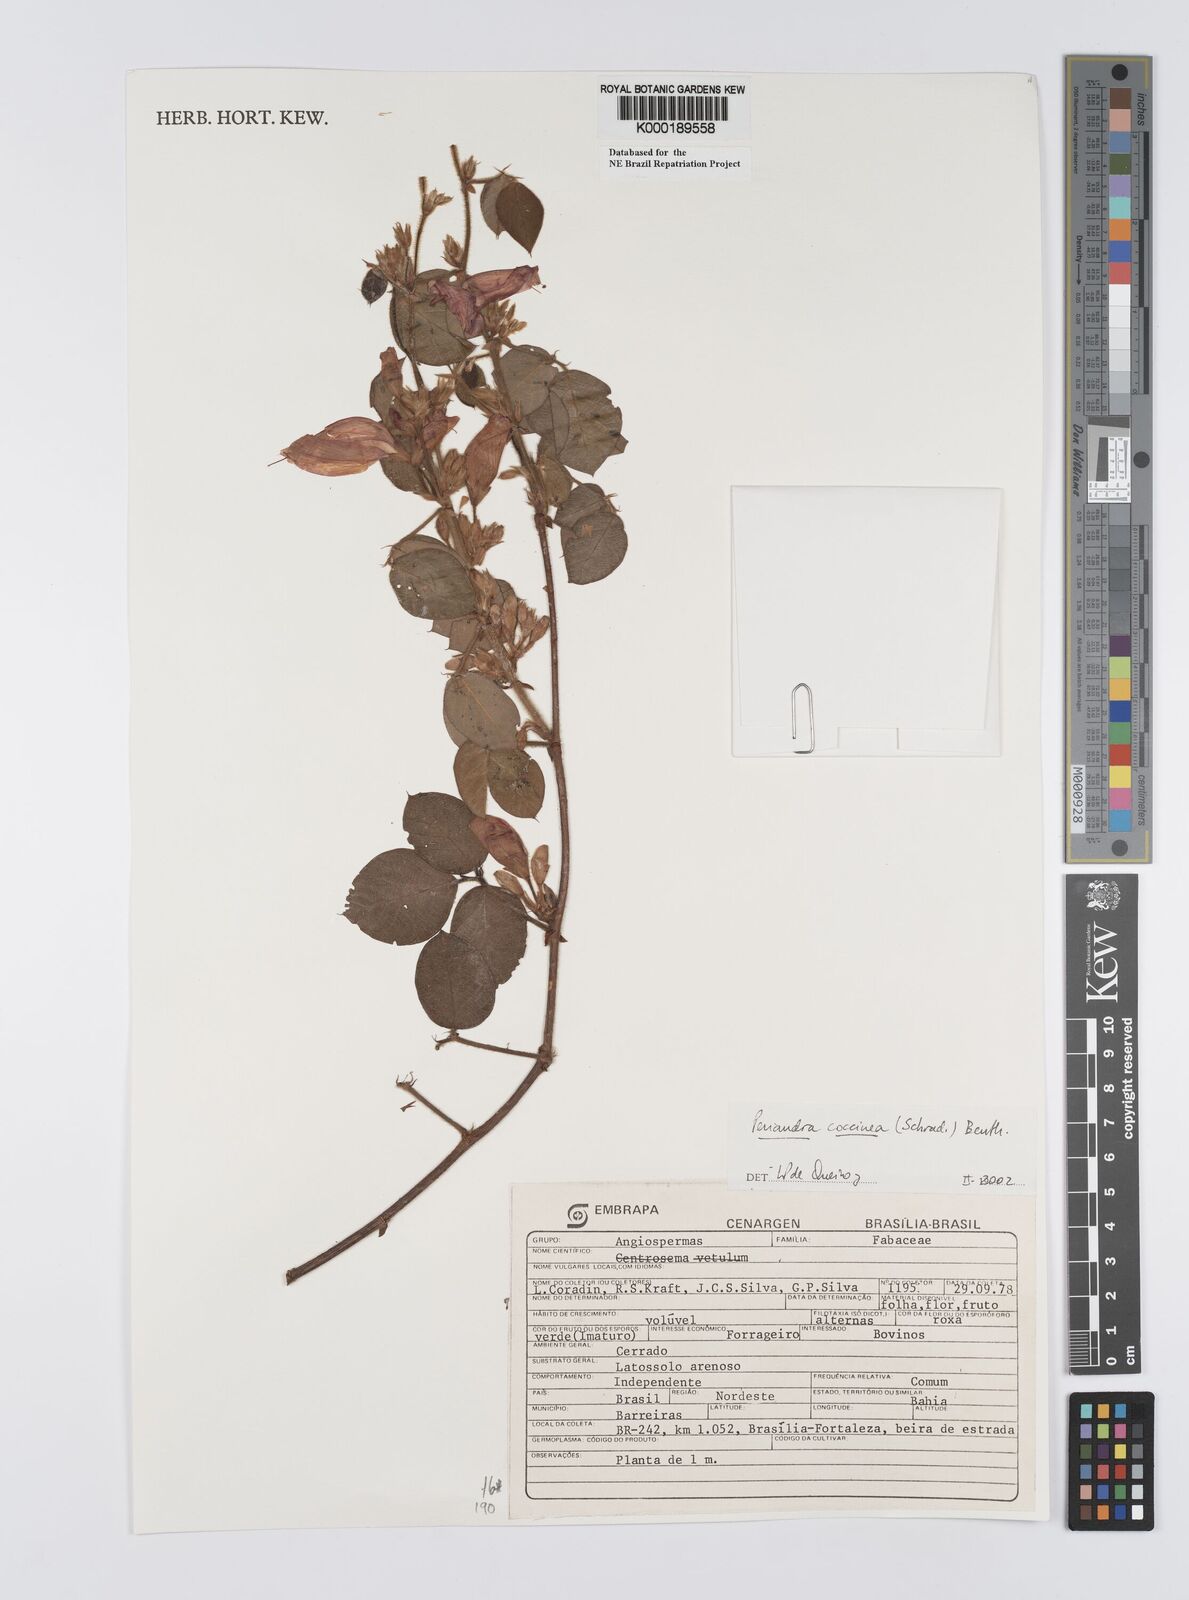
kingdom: Plantae
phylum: Tracheophyta
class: Magnoliopsida
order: Fabales
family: Fabaceae
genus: Periandra
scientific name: Periandra coccinea
